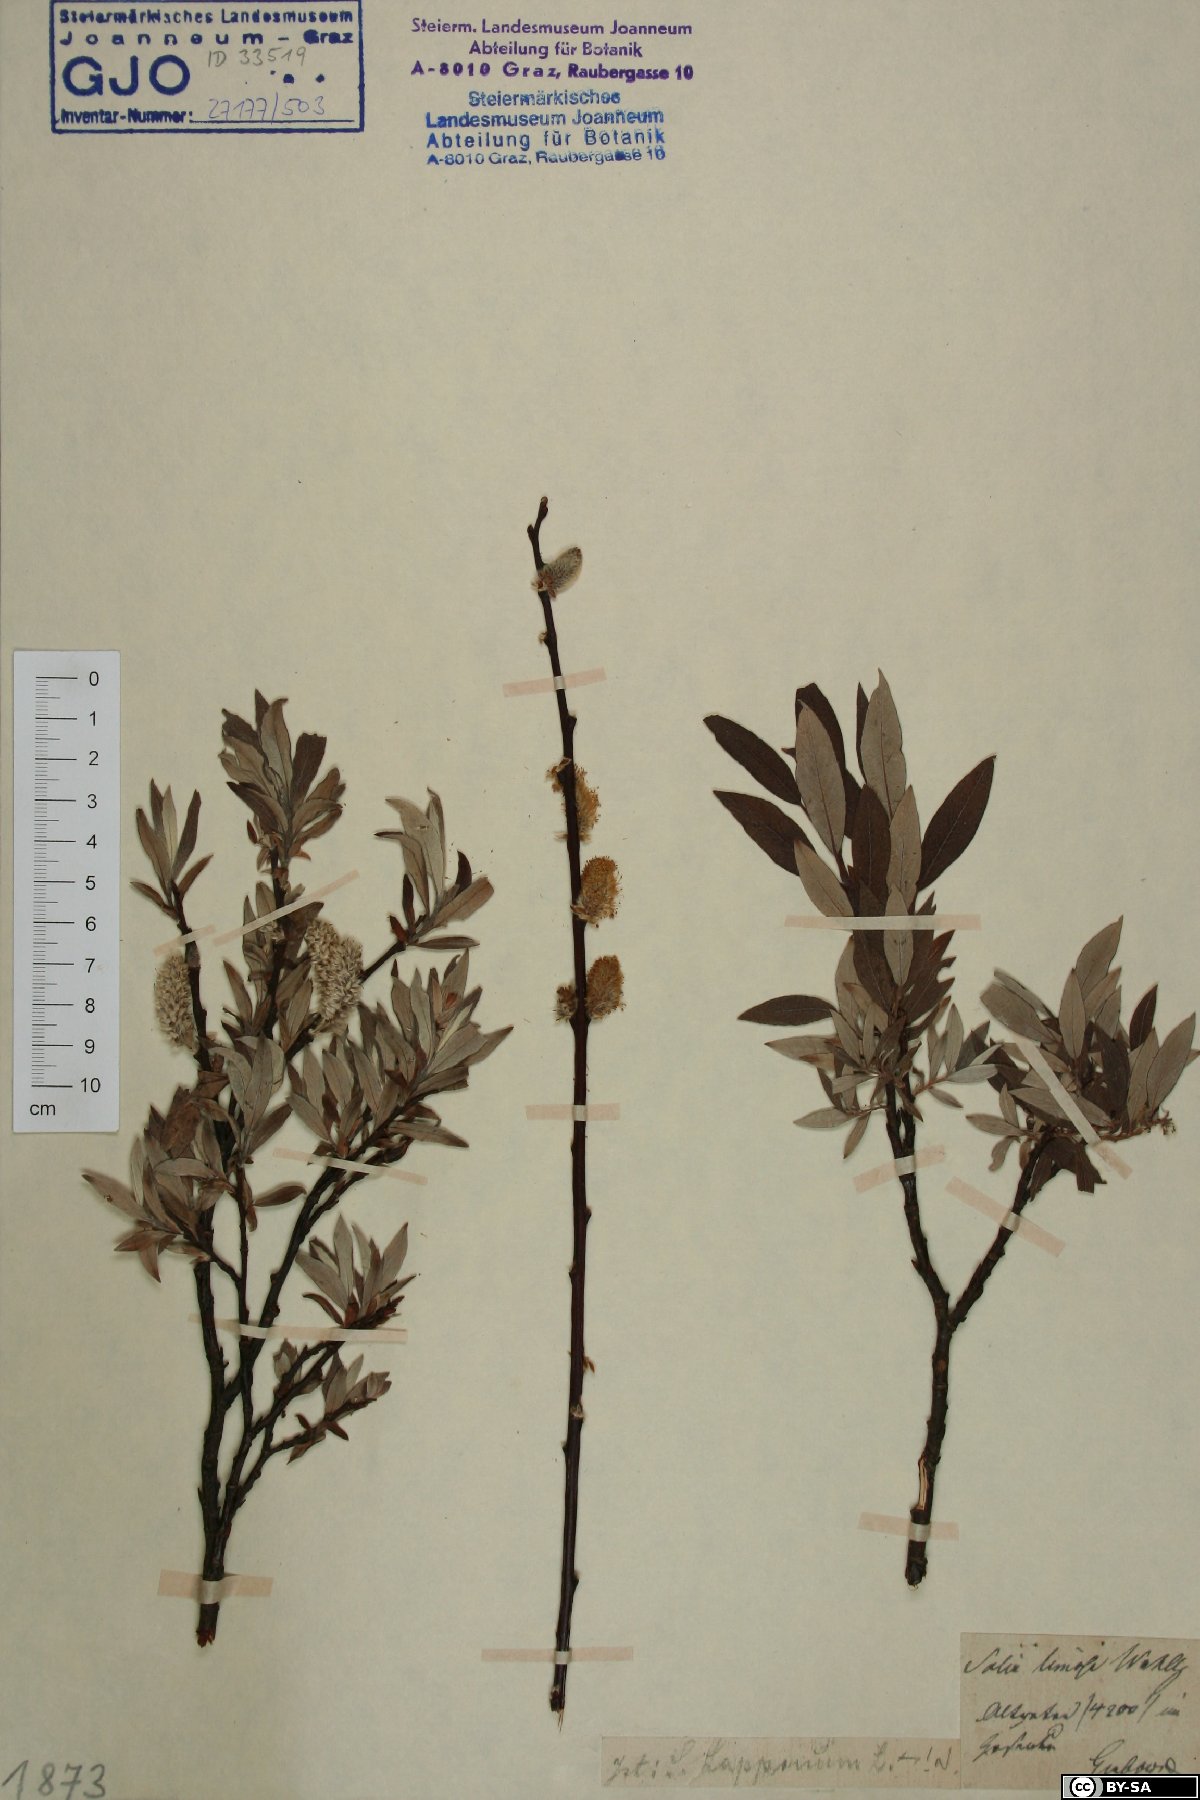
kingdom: Plantae
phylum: Tracheophyta
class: Magnoliopsida
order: Malpighiales
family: Salicaceae
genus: Salix
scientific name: Salix lapponum
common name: Downy willow
